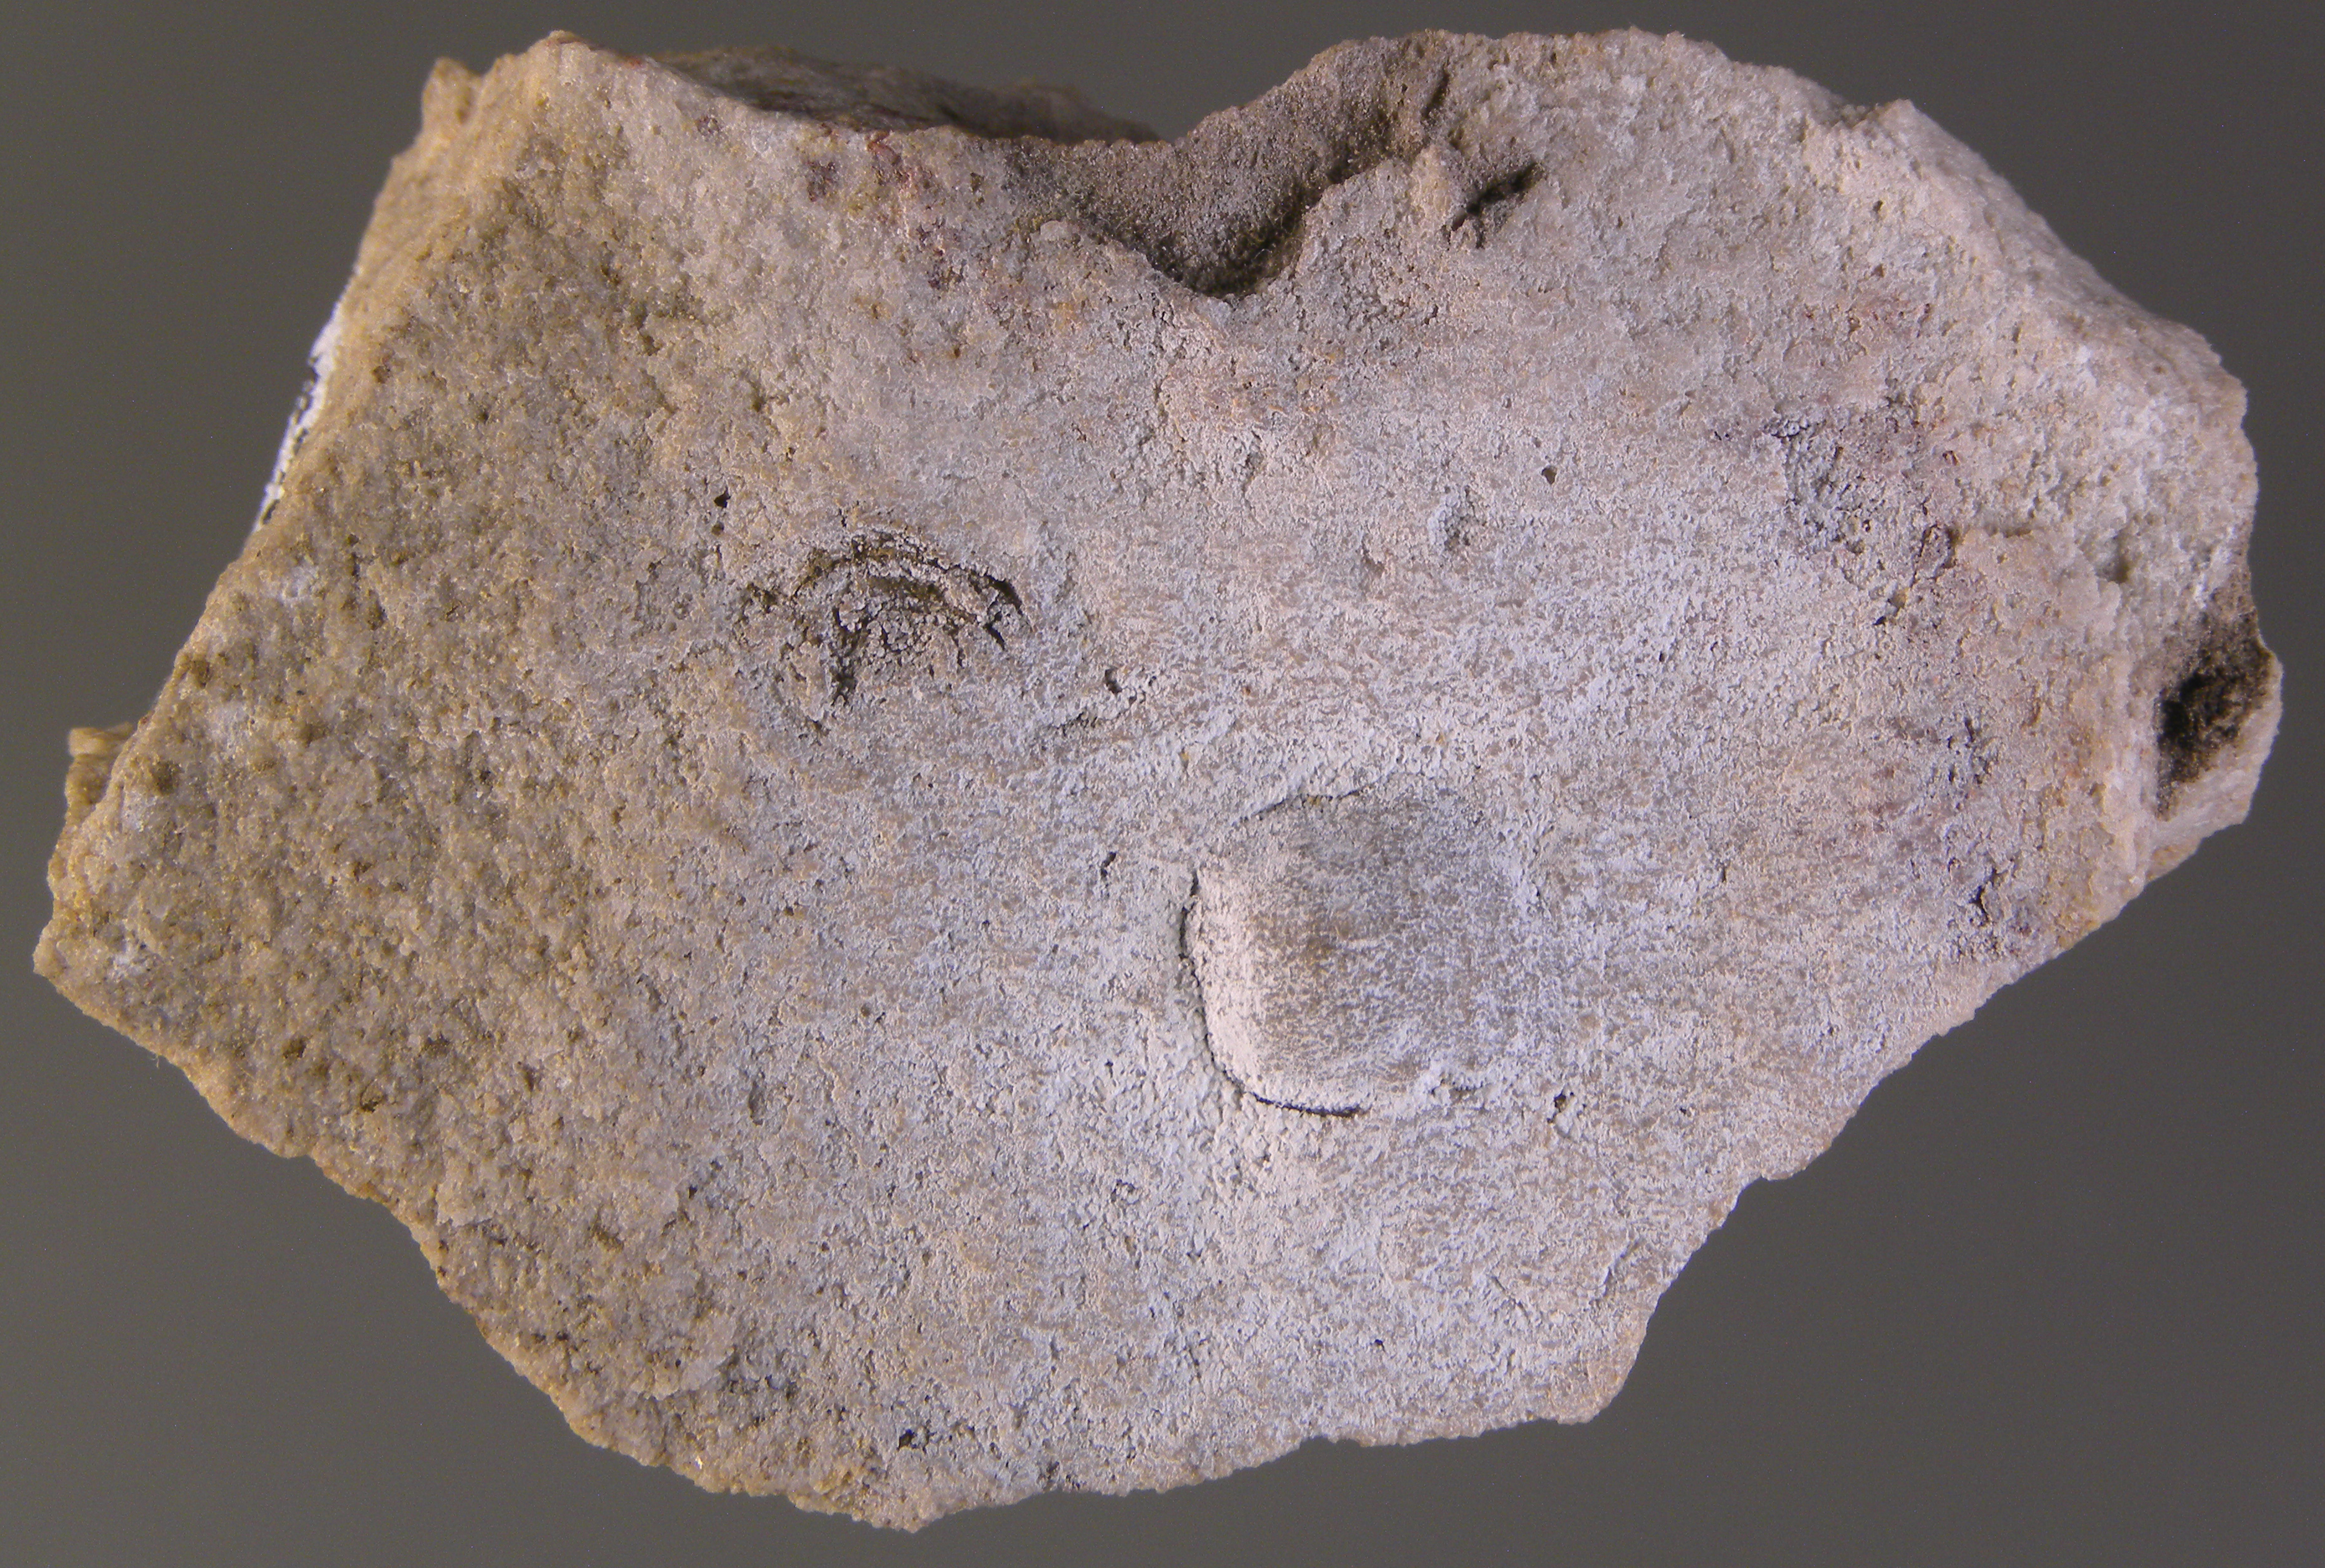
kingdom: Animalia
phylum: Brachiopoda
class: Craniata
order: Craniida
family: Craniidae
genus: Petrocrania
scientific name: Petrocrania
